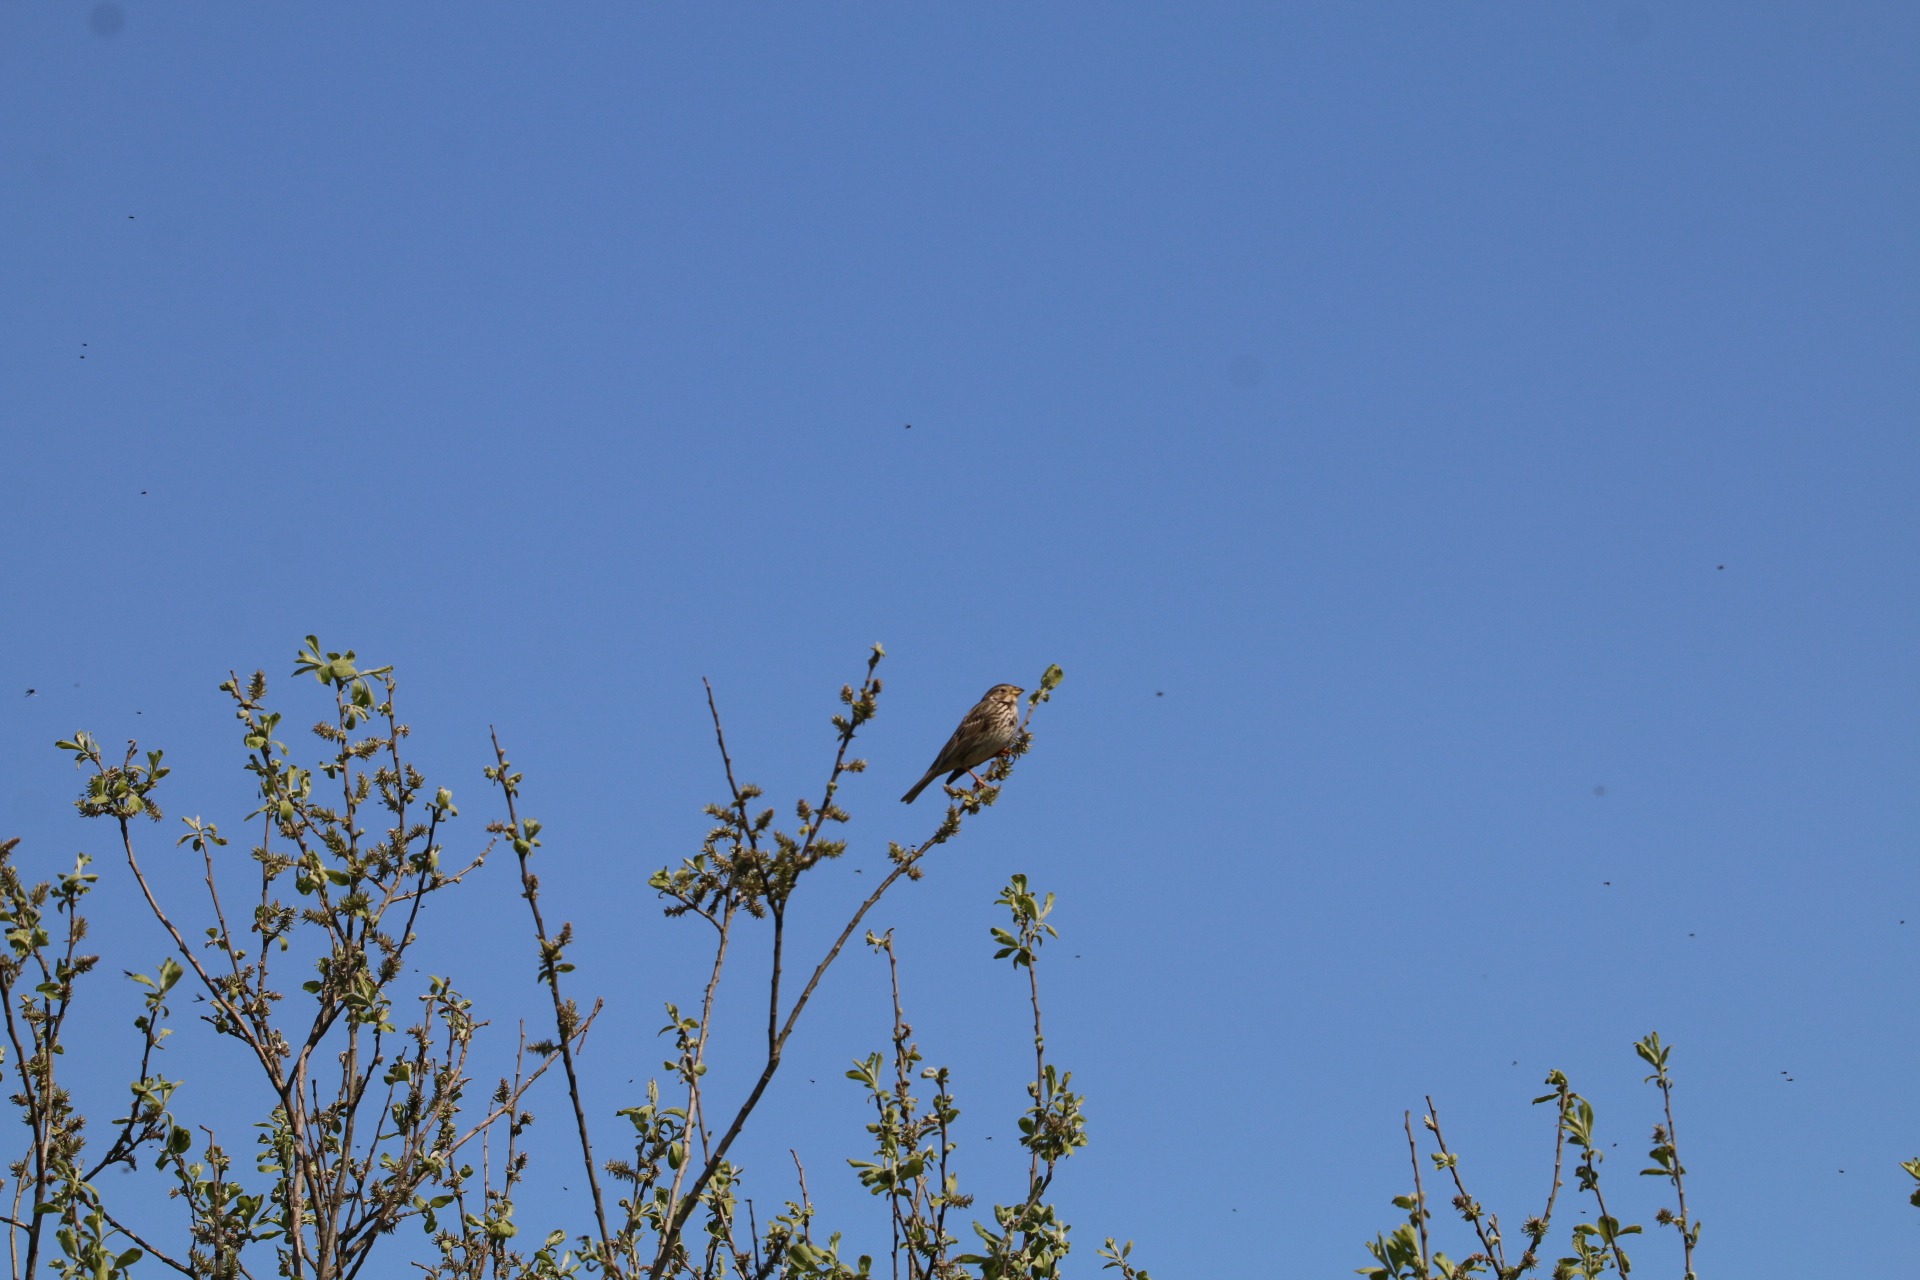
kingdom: Animalia
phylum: Chordata
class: Aves
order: Passeriformes
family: Emberizidae
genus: Emberiza
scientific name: Emberiza calandra
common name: Bomlærke
